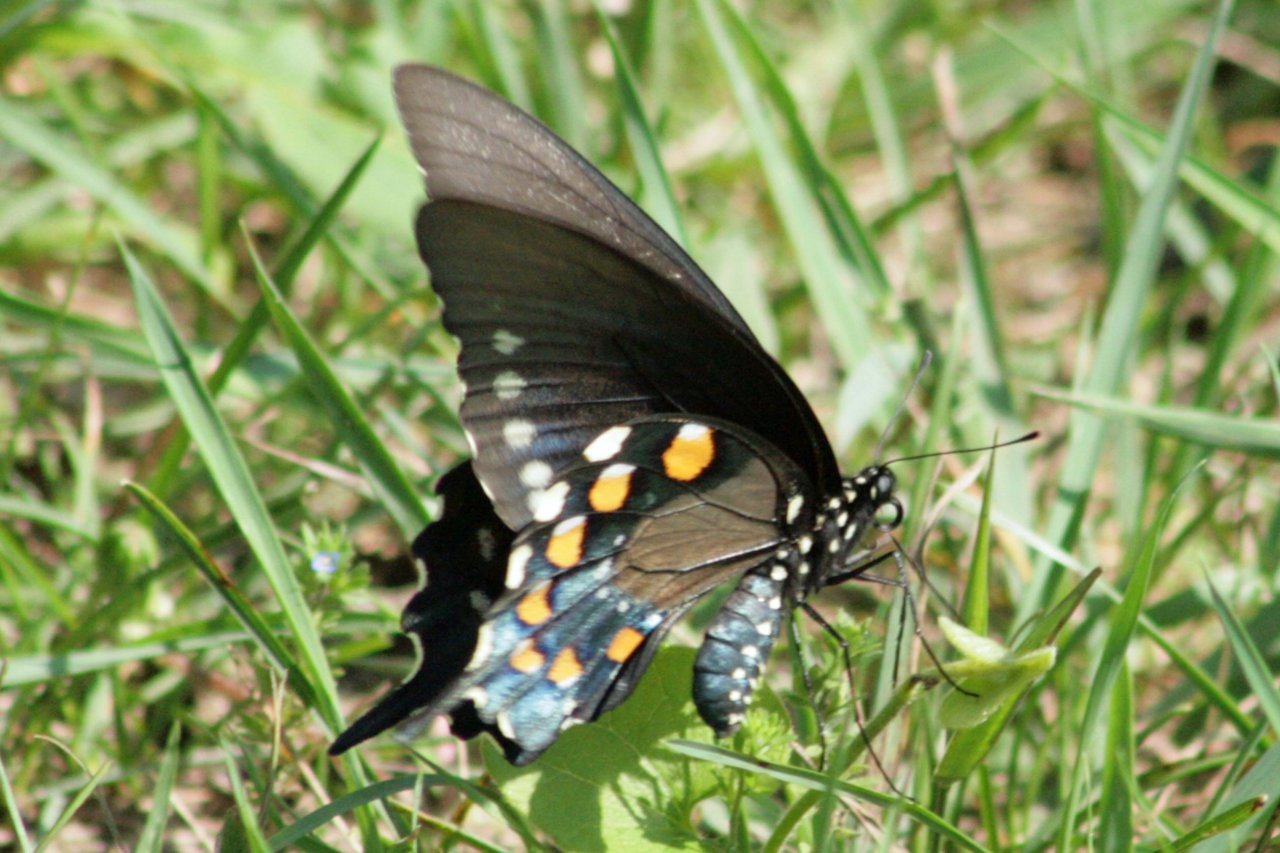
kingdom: Animalia
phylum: Arthropoda
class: Insecta
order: Lepidoptera
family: Papilionidae
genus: Battus
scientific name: Battus philenor
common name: Pipevine Swallowtail
